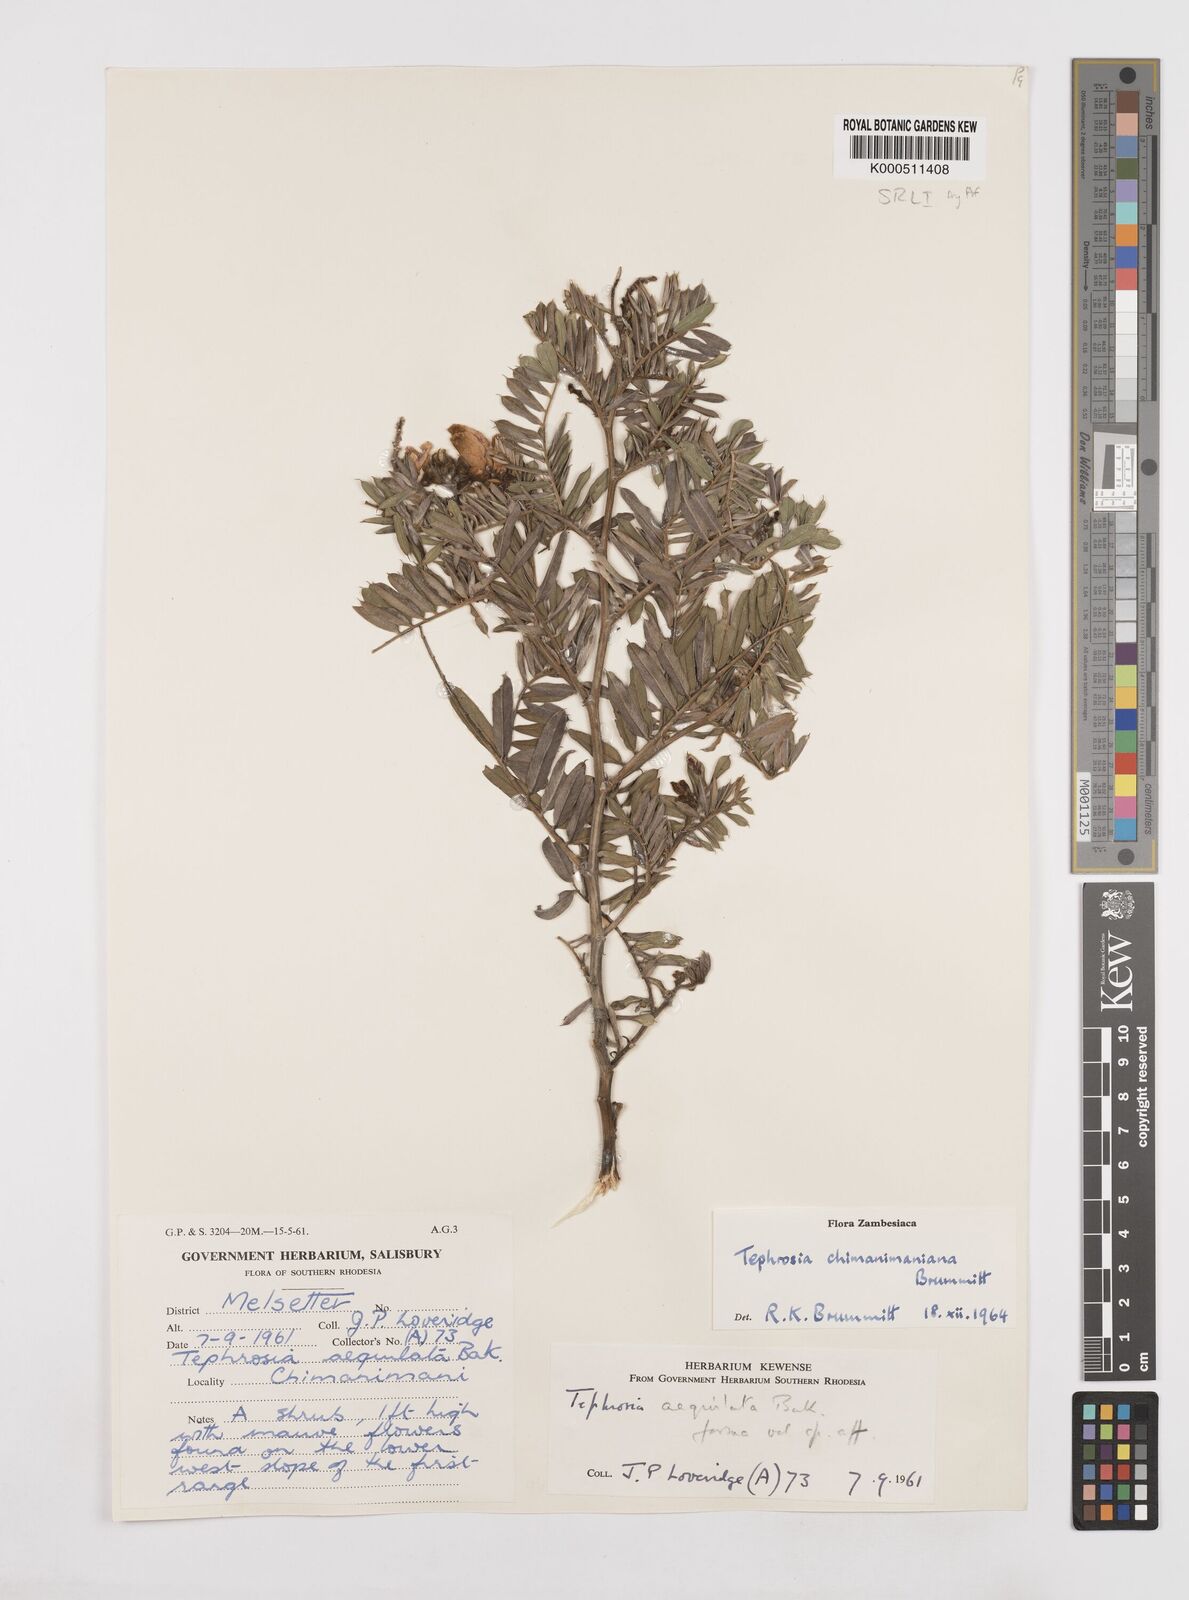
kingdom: Plantae
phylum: Tracheophyta
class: Magnoliopsida
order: Fabales
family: Fabaceae
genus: Tephrosia
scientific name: Tephrosia chimanimaniana
